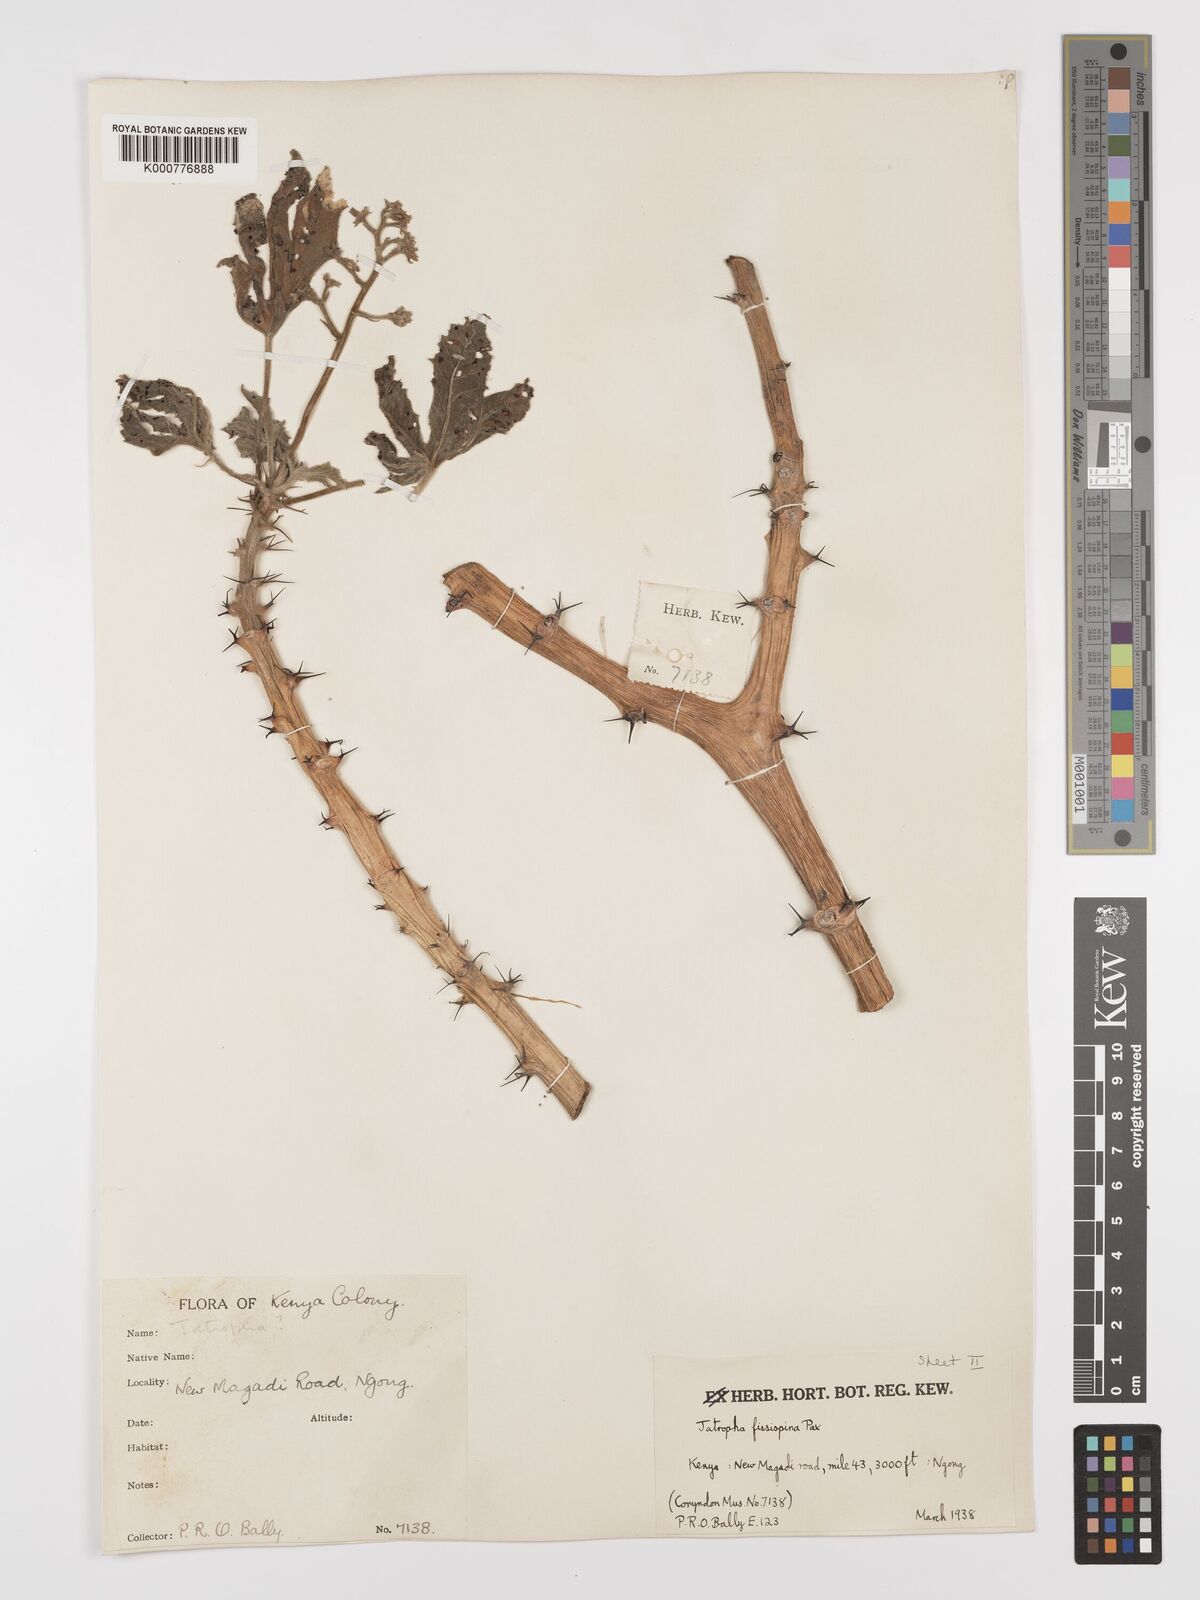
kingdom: Plantae
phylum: Tracheophyta
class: Magnoliopsida
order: Malpighiales
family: Euphorbiaceae
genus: Jatropha
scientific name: Jatropha ellenbeckii
